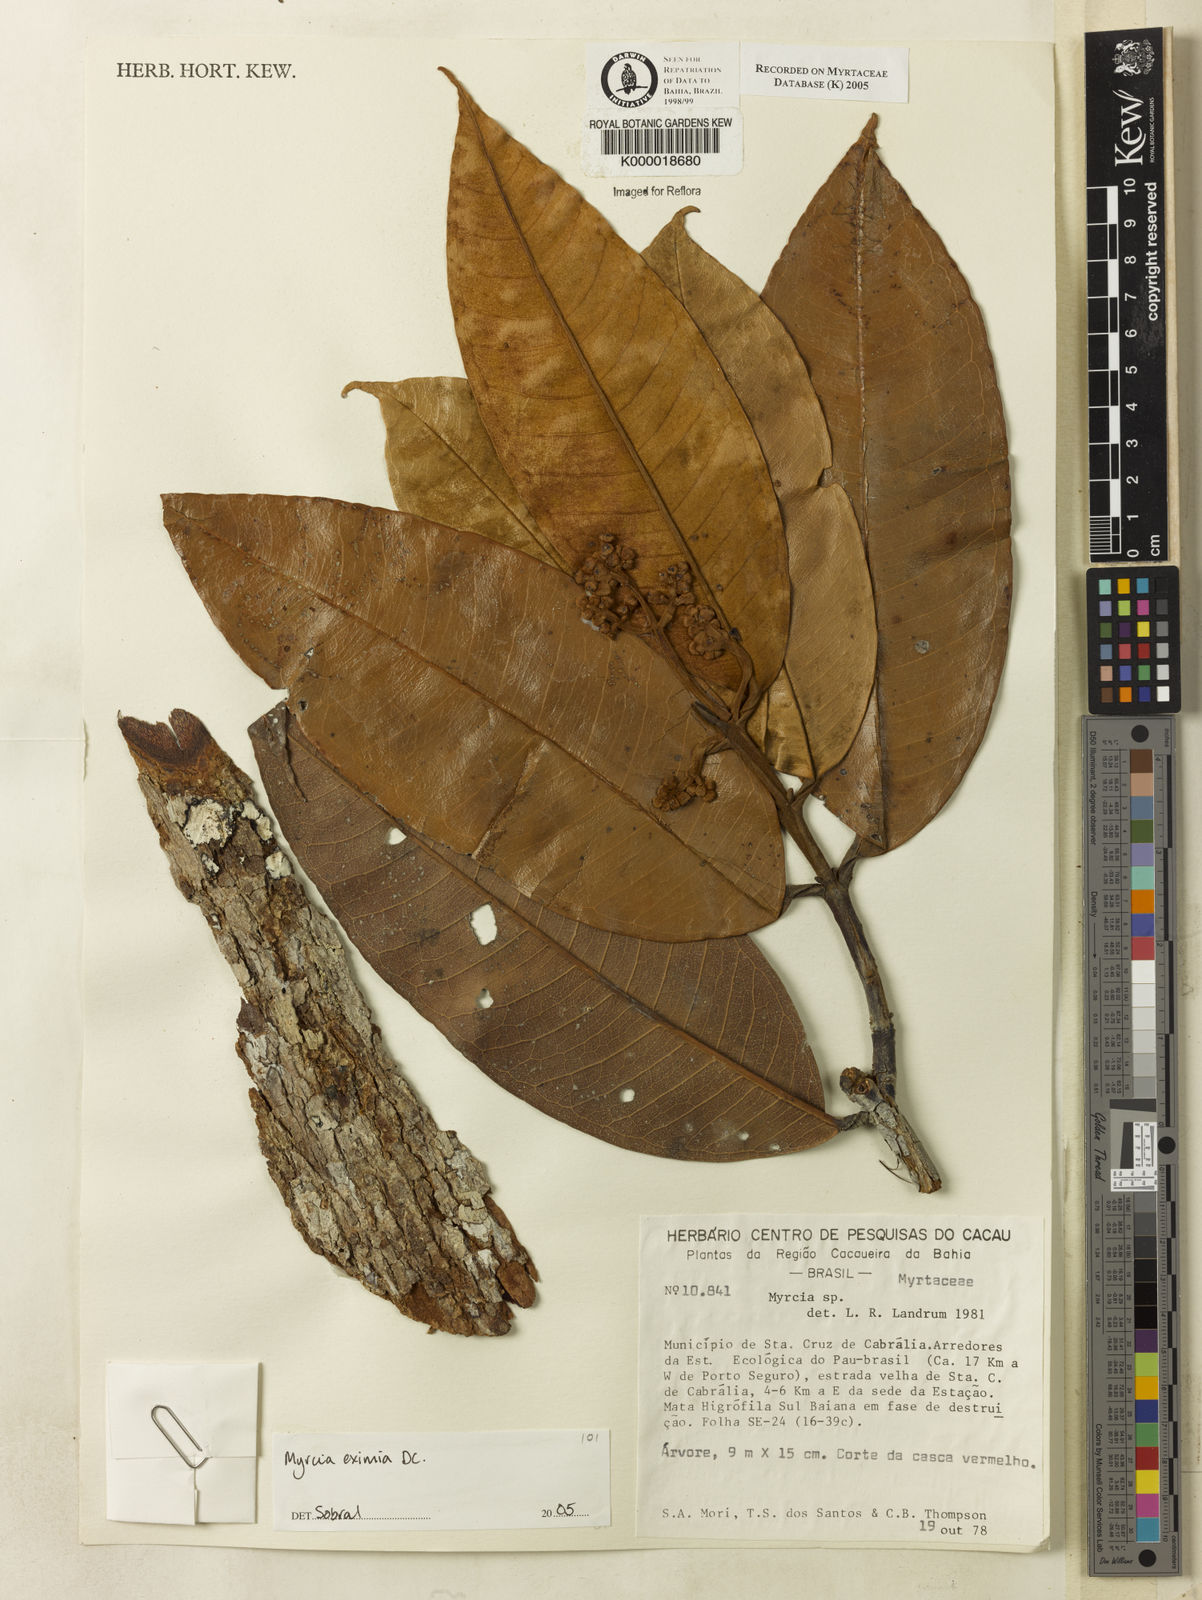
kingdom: Plantae
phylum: Tracheophyta
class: Magnoliopsida
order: Myrtales
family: Myrtaceae
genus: Myrcia
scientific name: Myrcia
